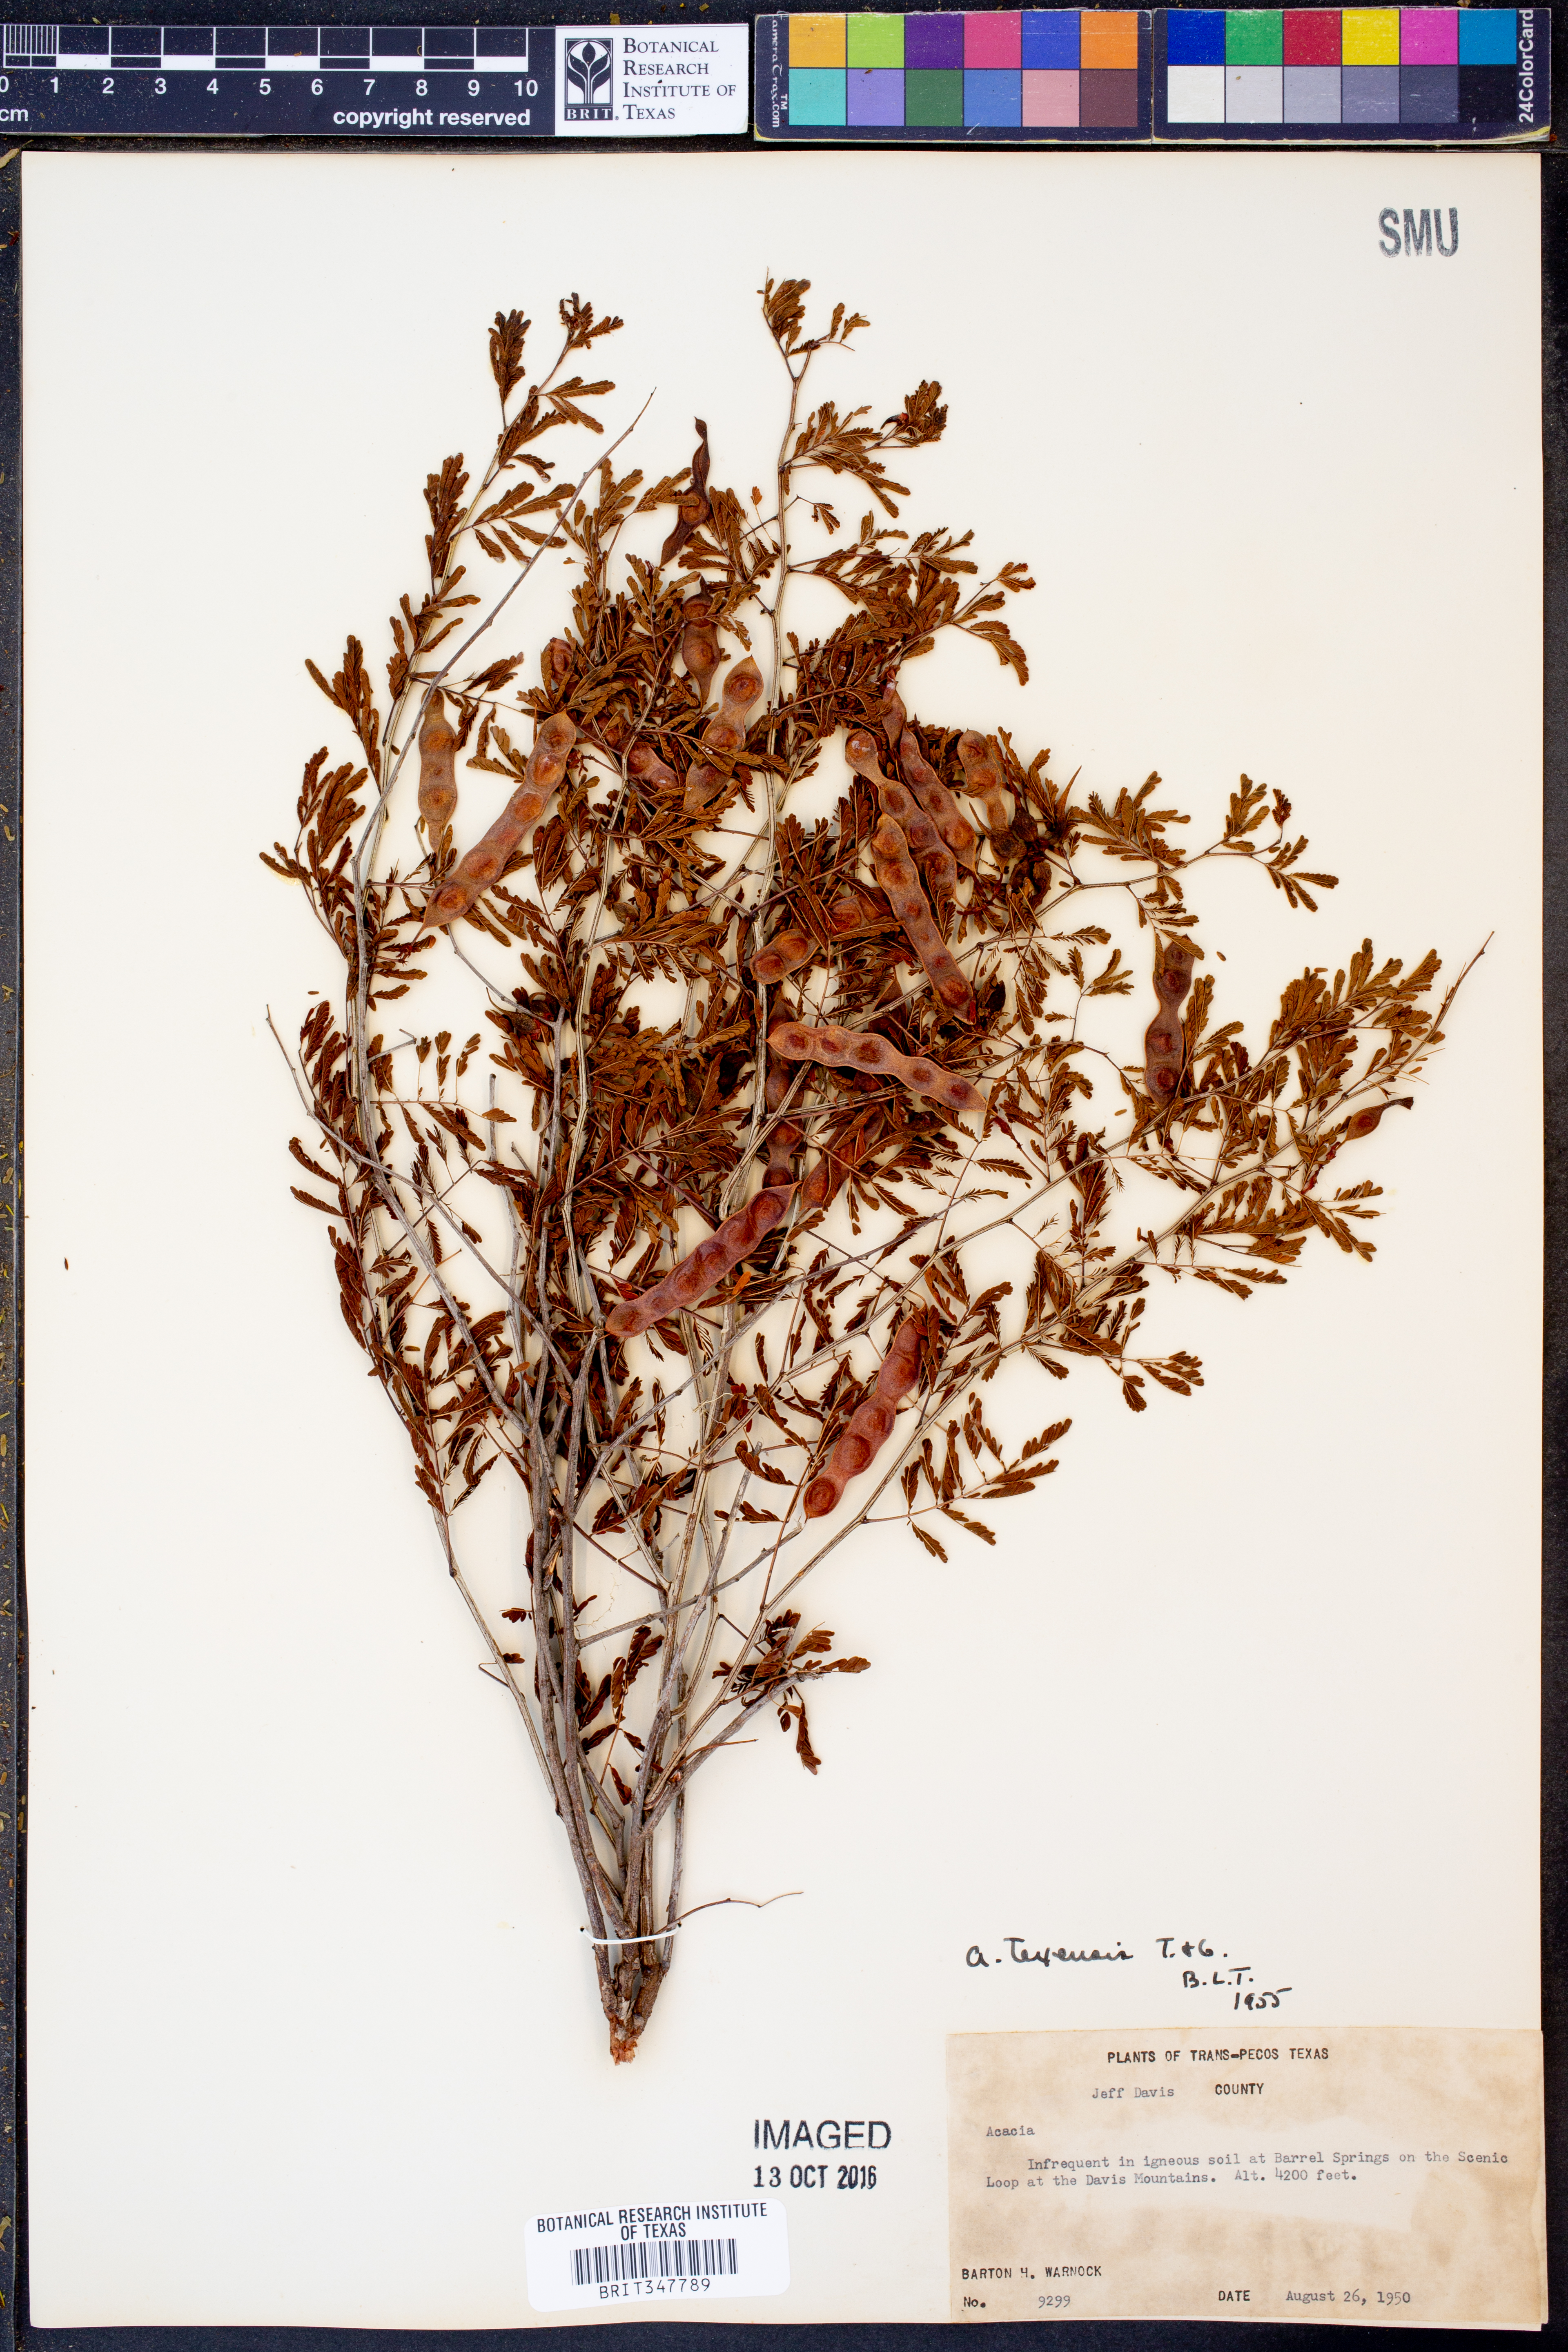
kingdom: Plantae
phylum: Tracheophyta
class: Magnoliopsida
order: Fabales
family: Fabaceae
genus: Acaciella
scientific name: Acaciella angustissima
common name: Prairie acacia
